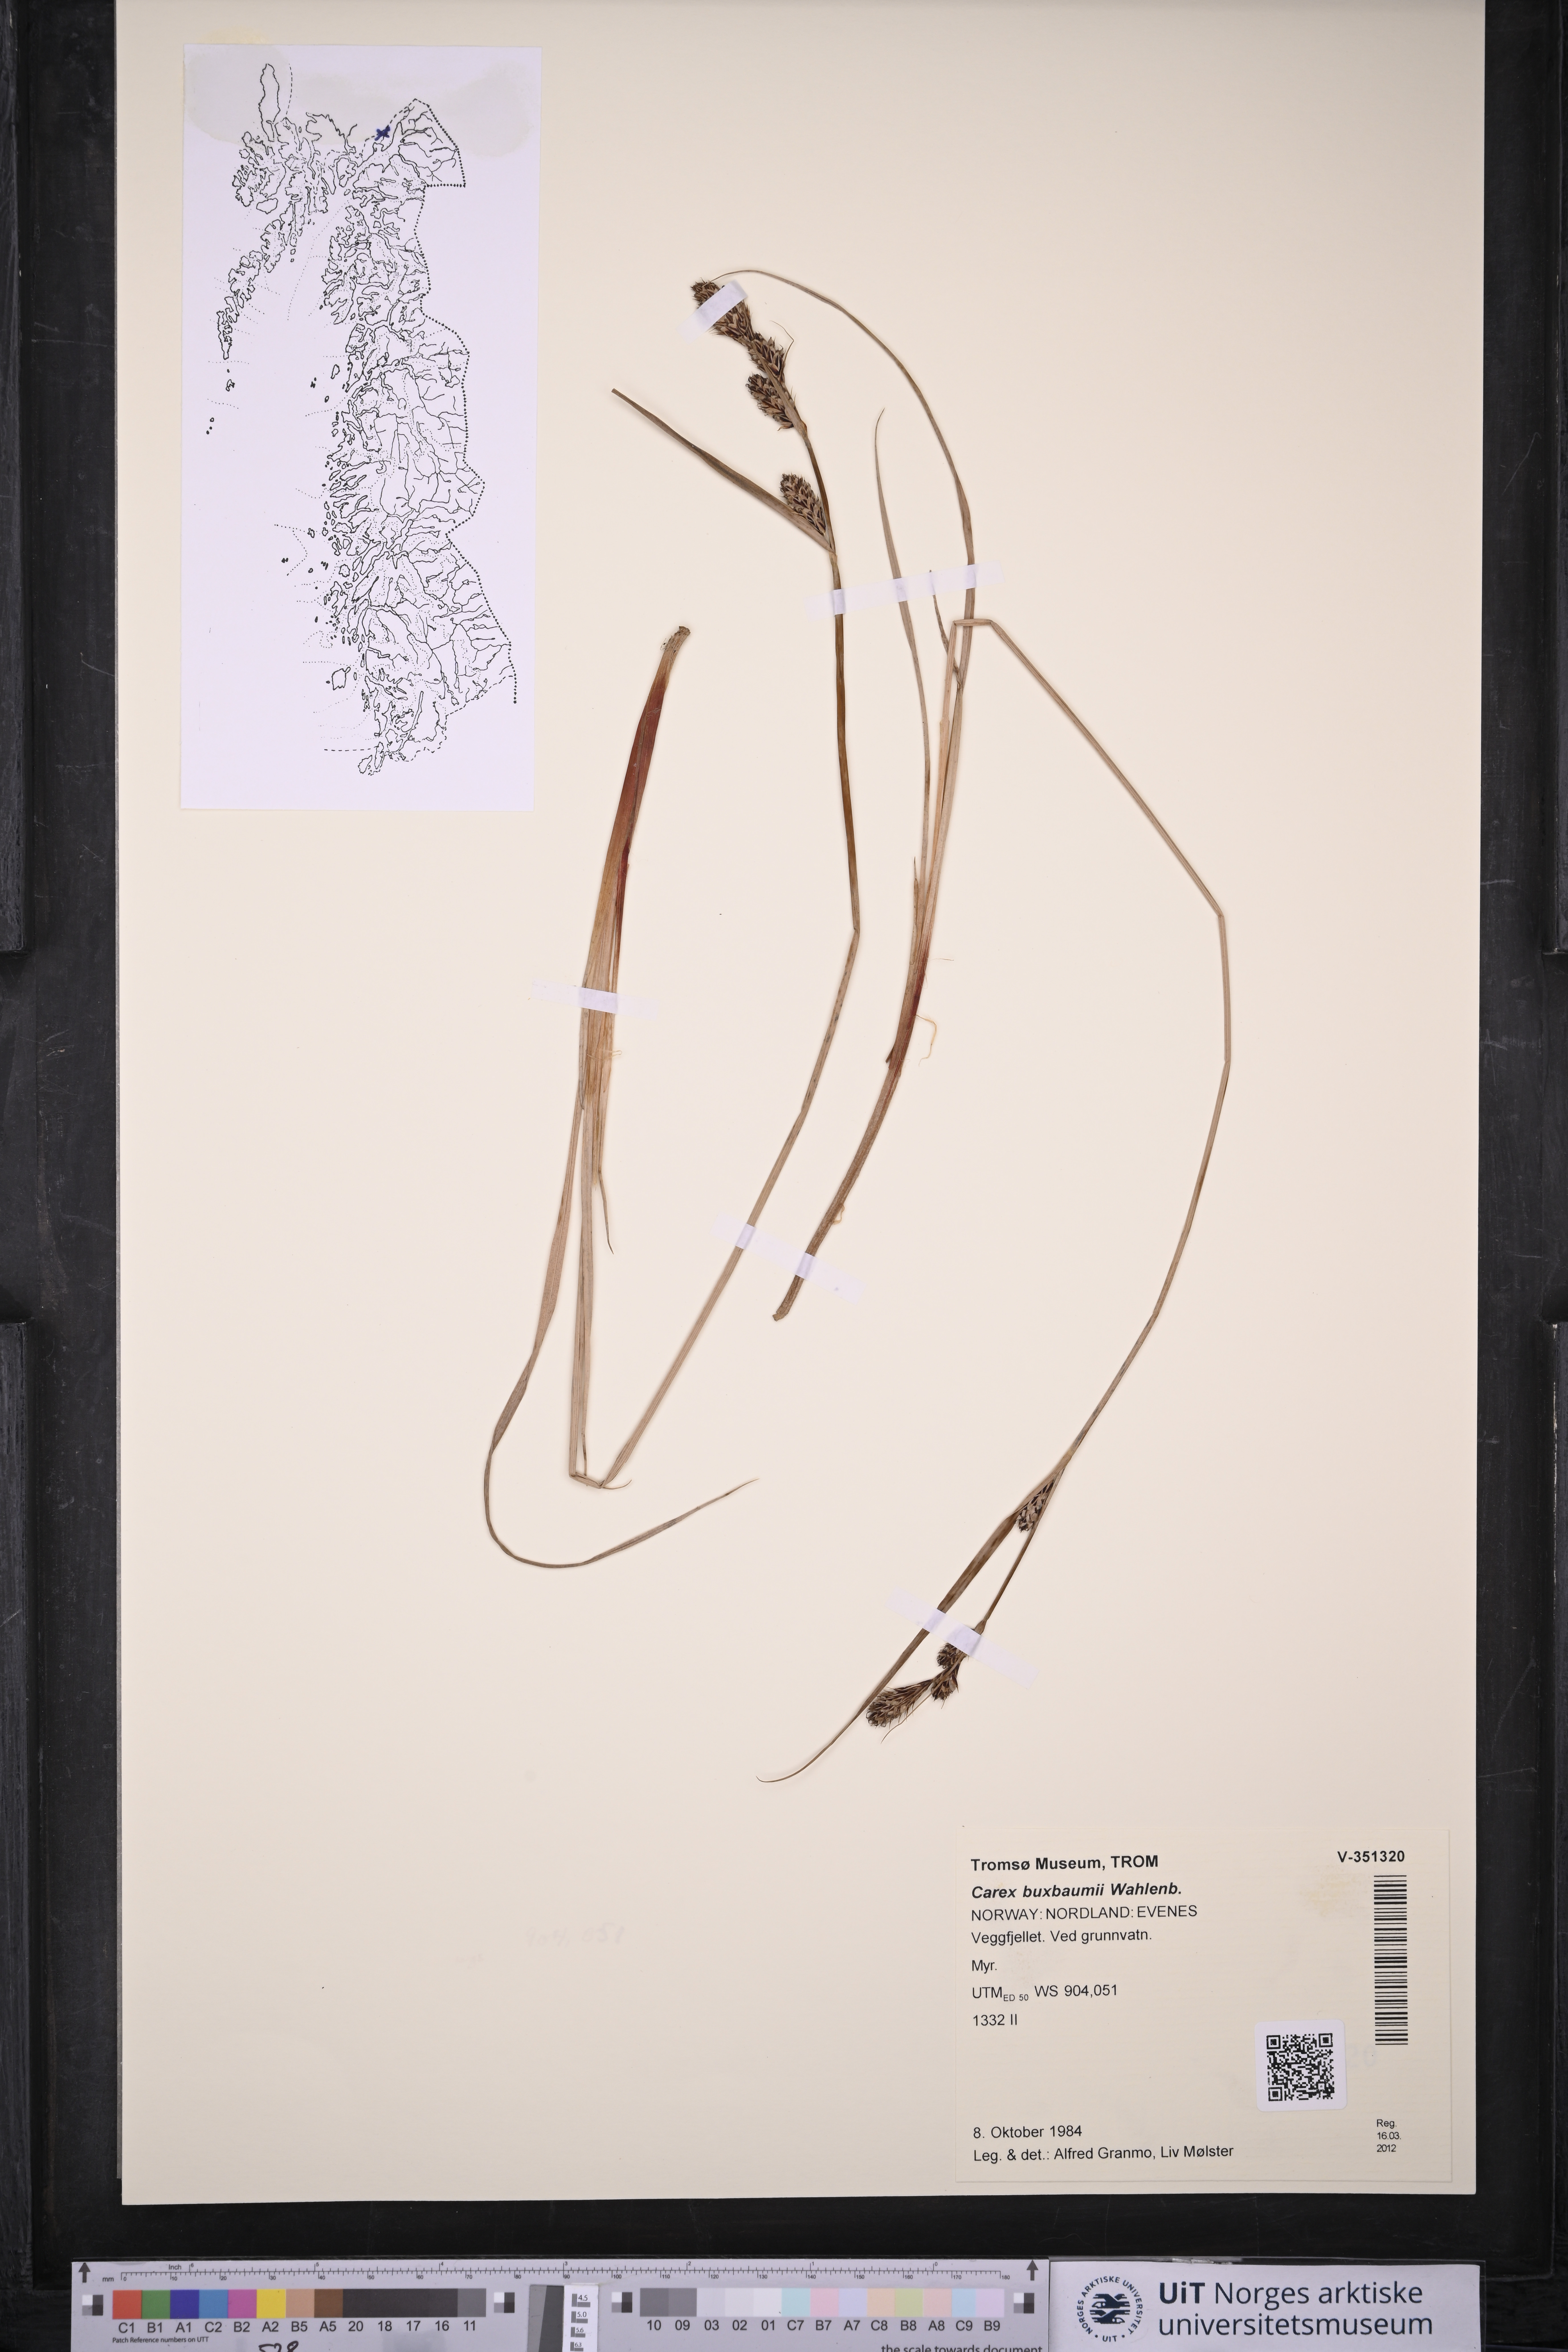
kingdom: Plantae
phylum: Tracheophyta
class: Liliopsida
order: Poales
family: Cyperaceae
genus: Carex
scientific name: Carex buxbaumii
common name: Club sedge
